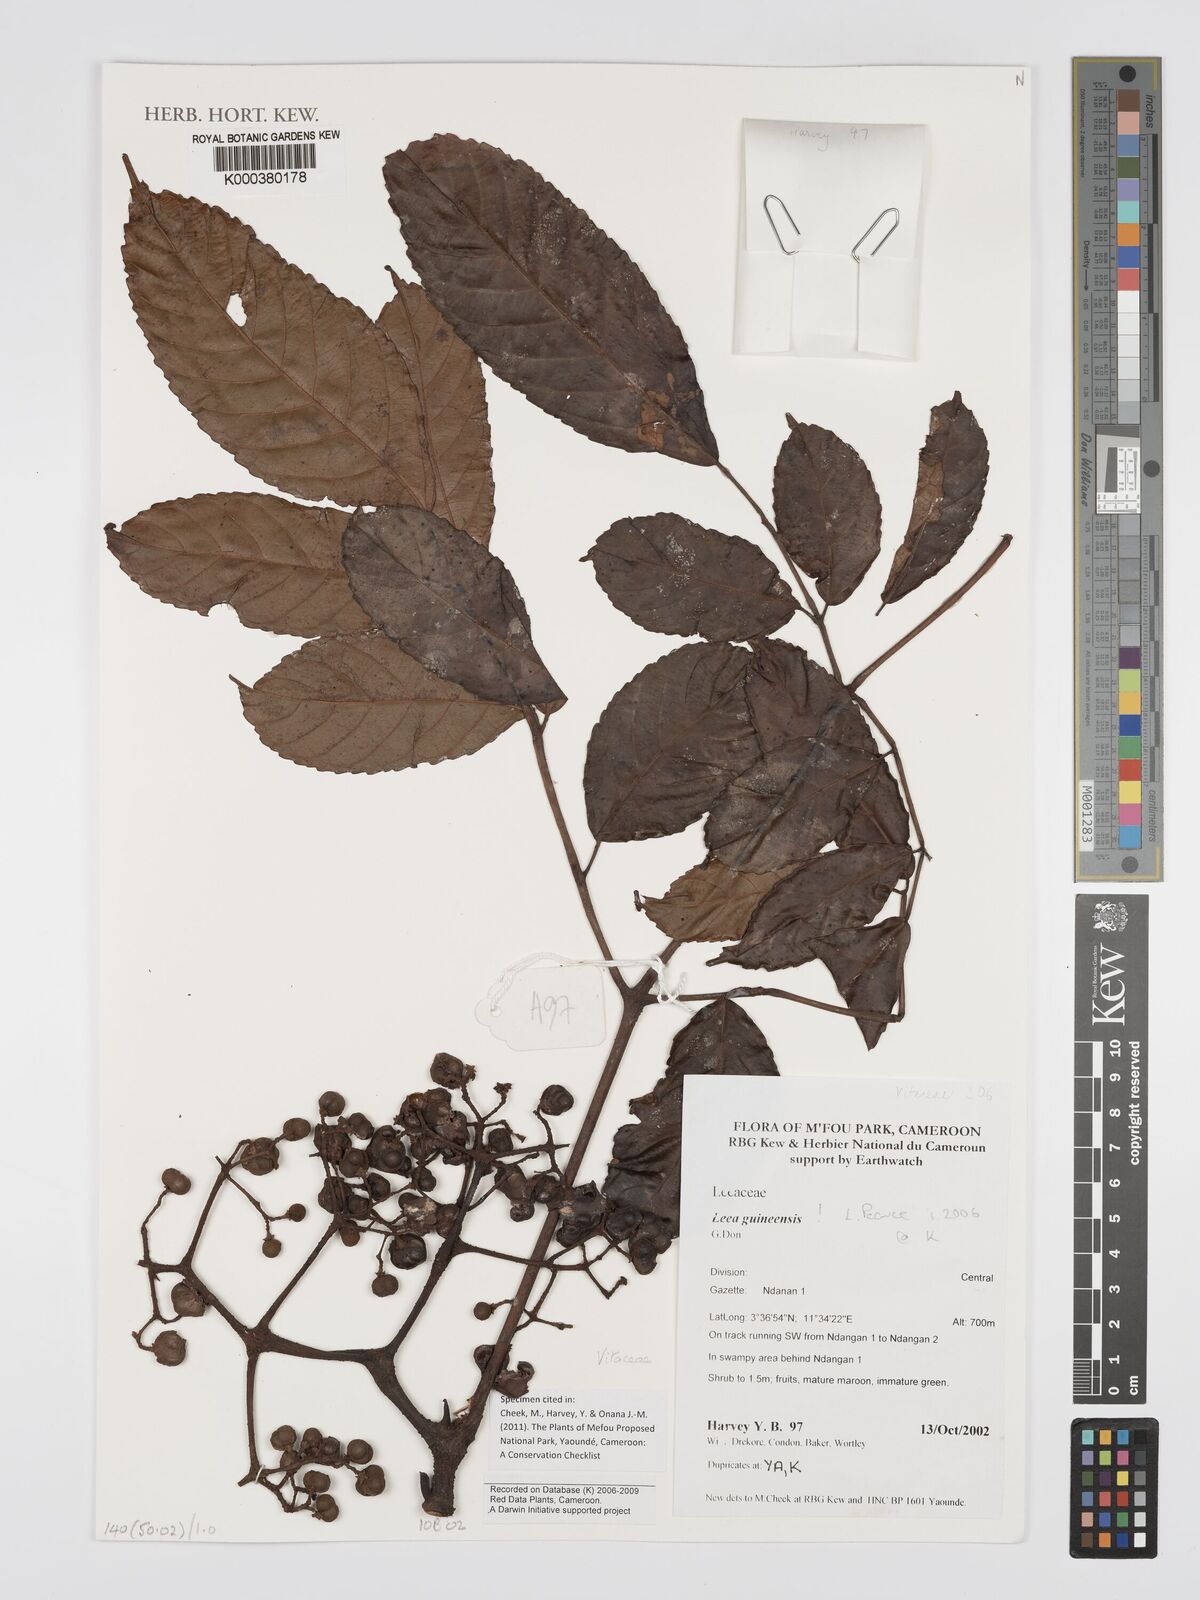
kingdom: Plantae
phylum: Tracheophyta
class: Magnoliopsida
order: Vitales
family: Vitaceae
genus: Leea
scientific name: Leea guineensis
